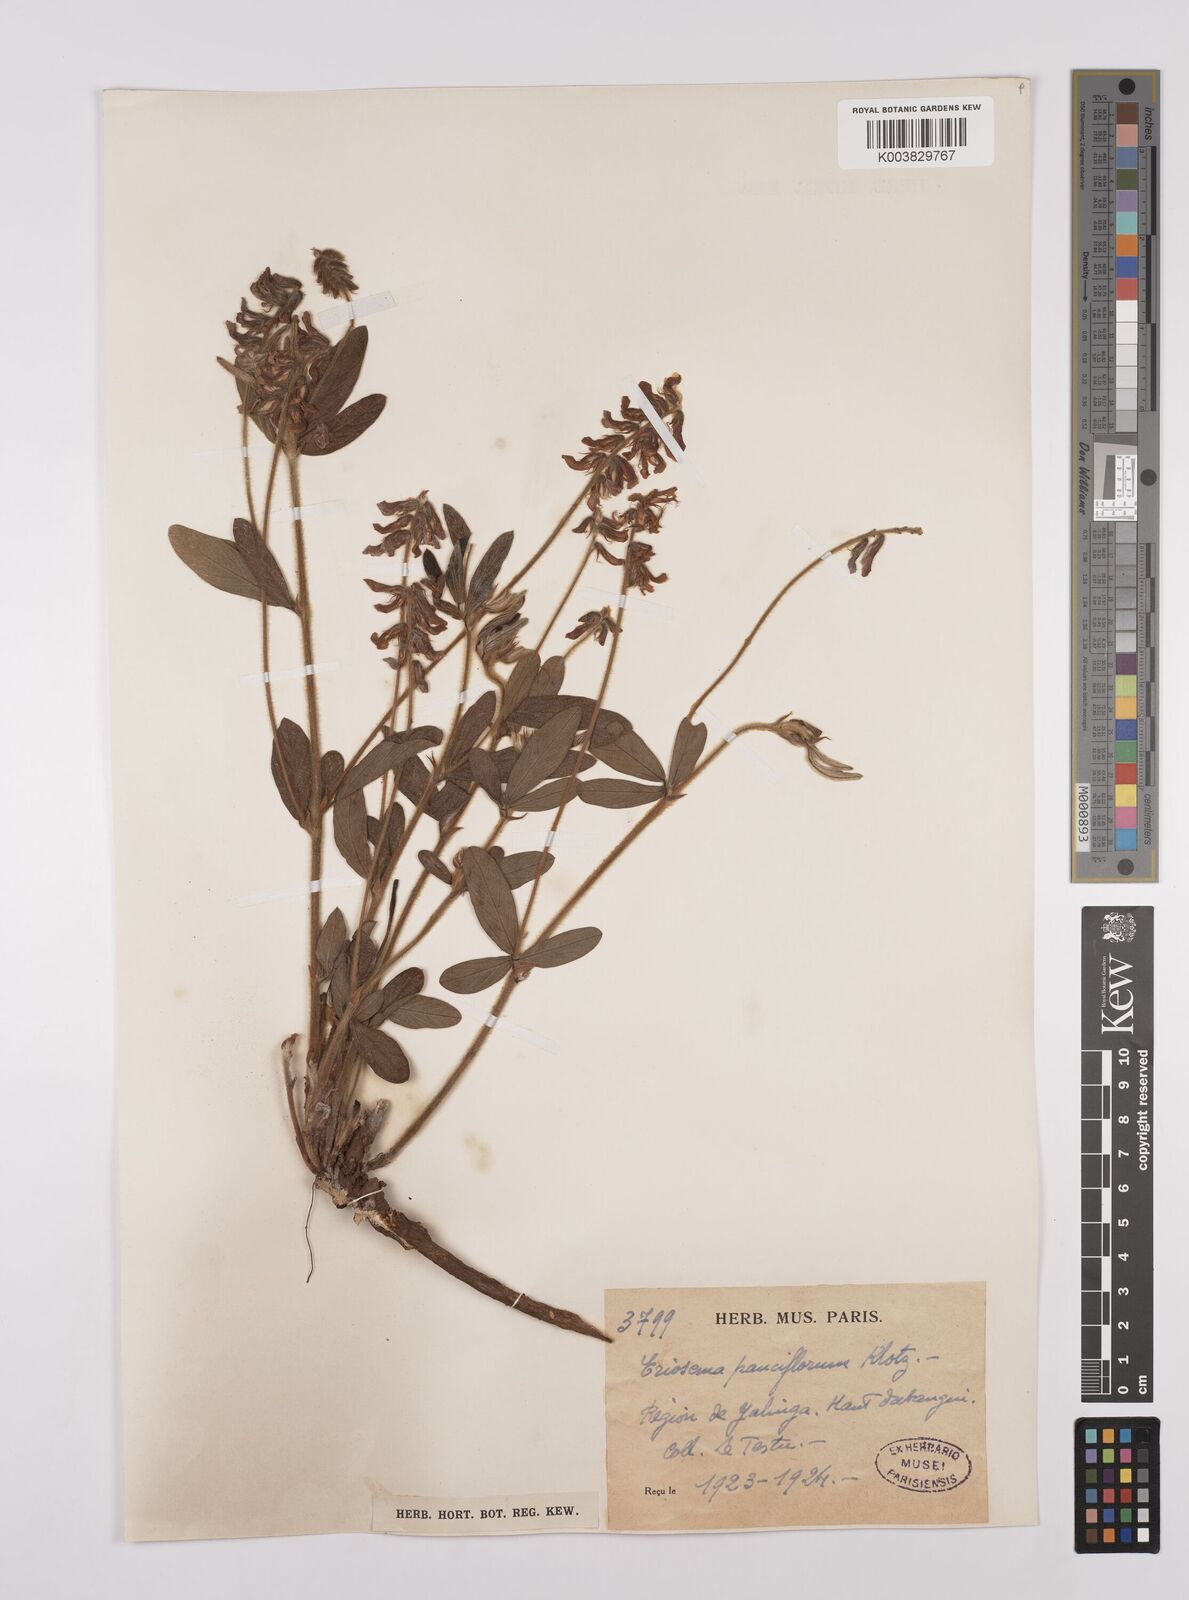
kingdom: Plantae
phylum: Tracheophyta
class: Magnoliopsida
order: Fabales
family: Fabaceae
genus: Eriosema
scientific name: Eriosema pauciflorum
